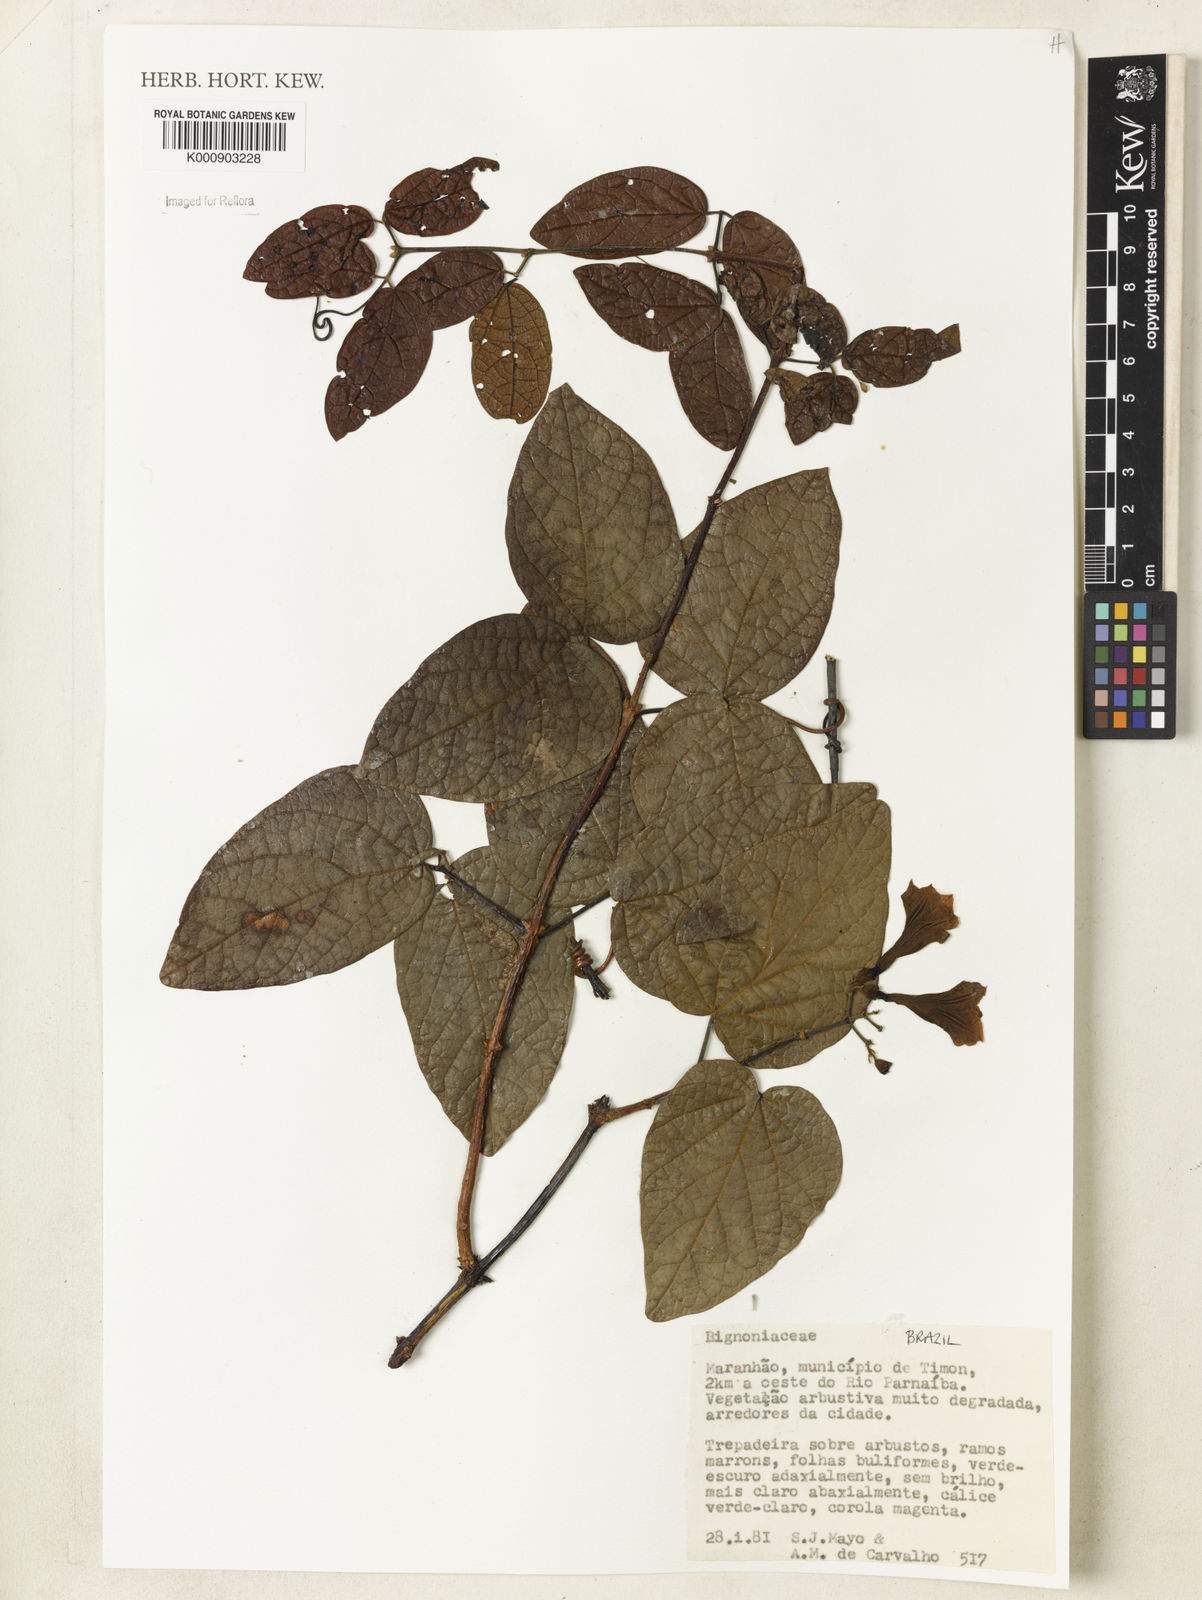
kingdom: Plantae
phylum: Tracheophyta
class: Magnoliopsida
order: Lamiales
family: Bignoniaceae
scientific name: Bignoniaceae
